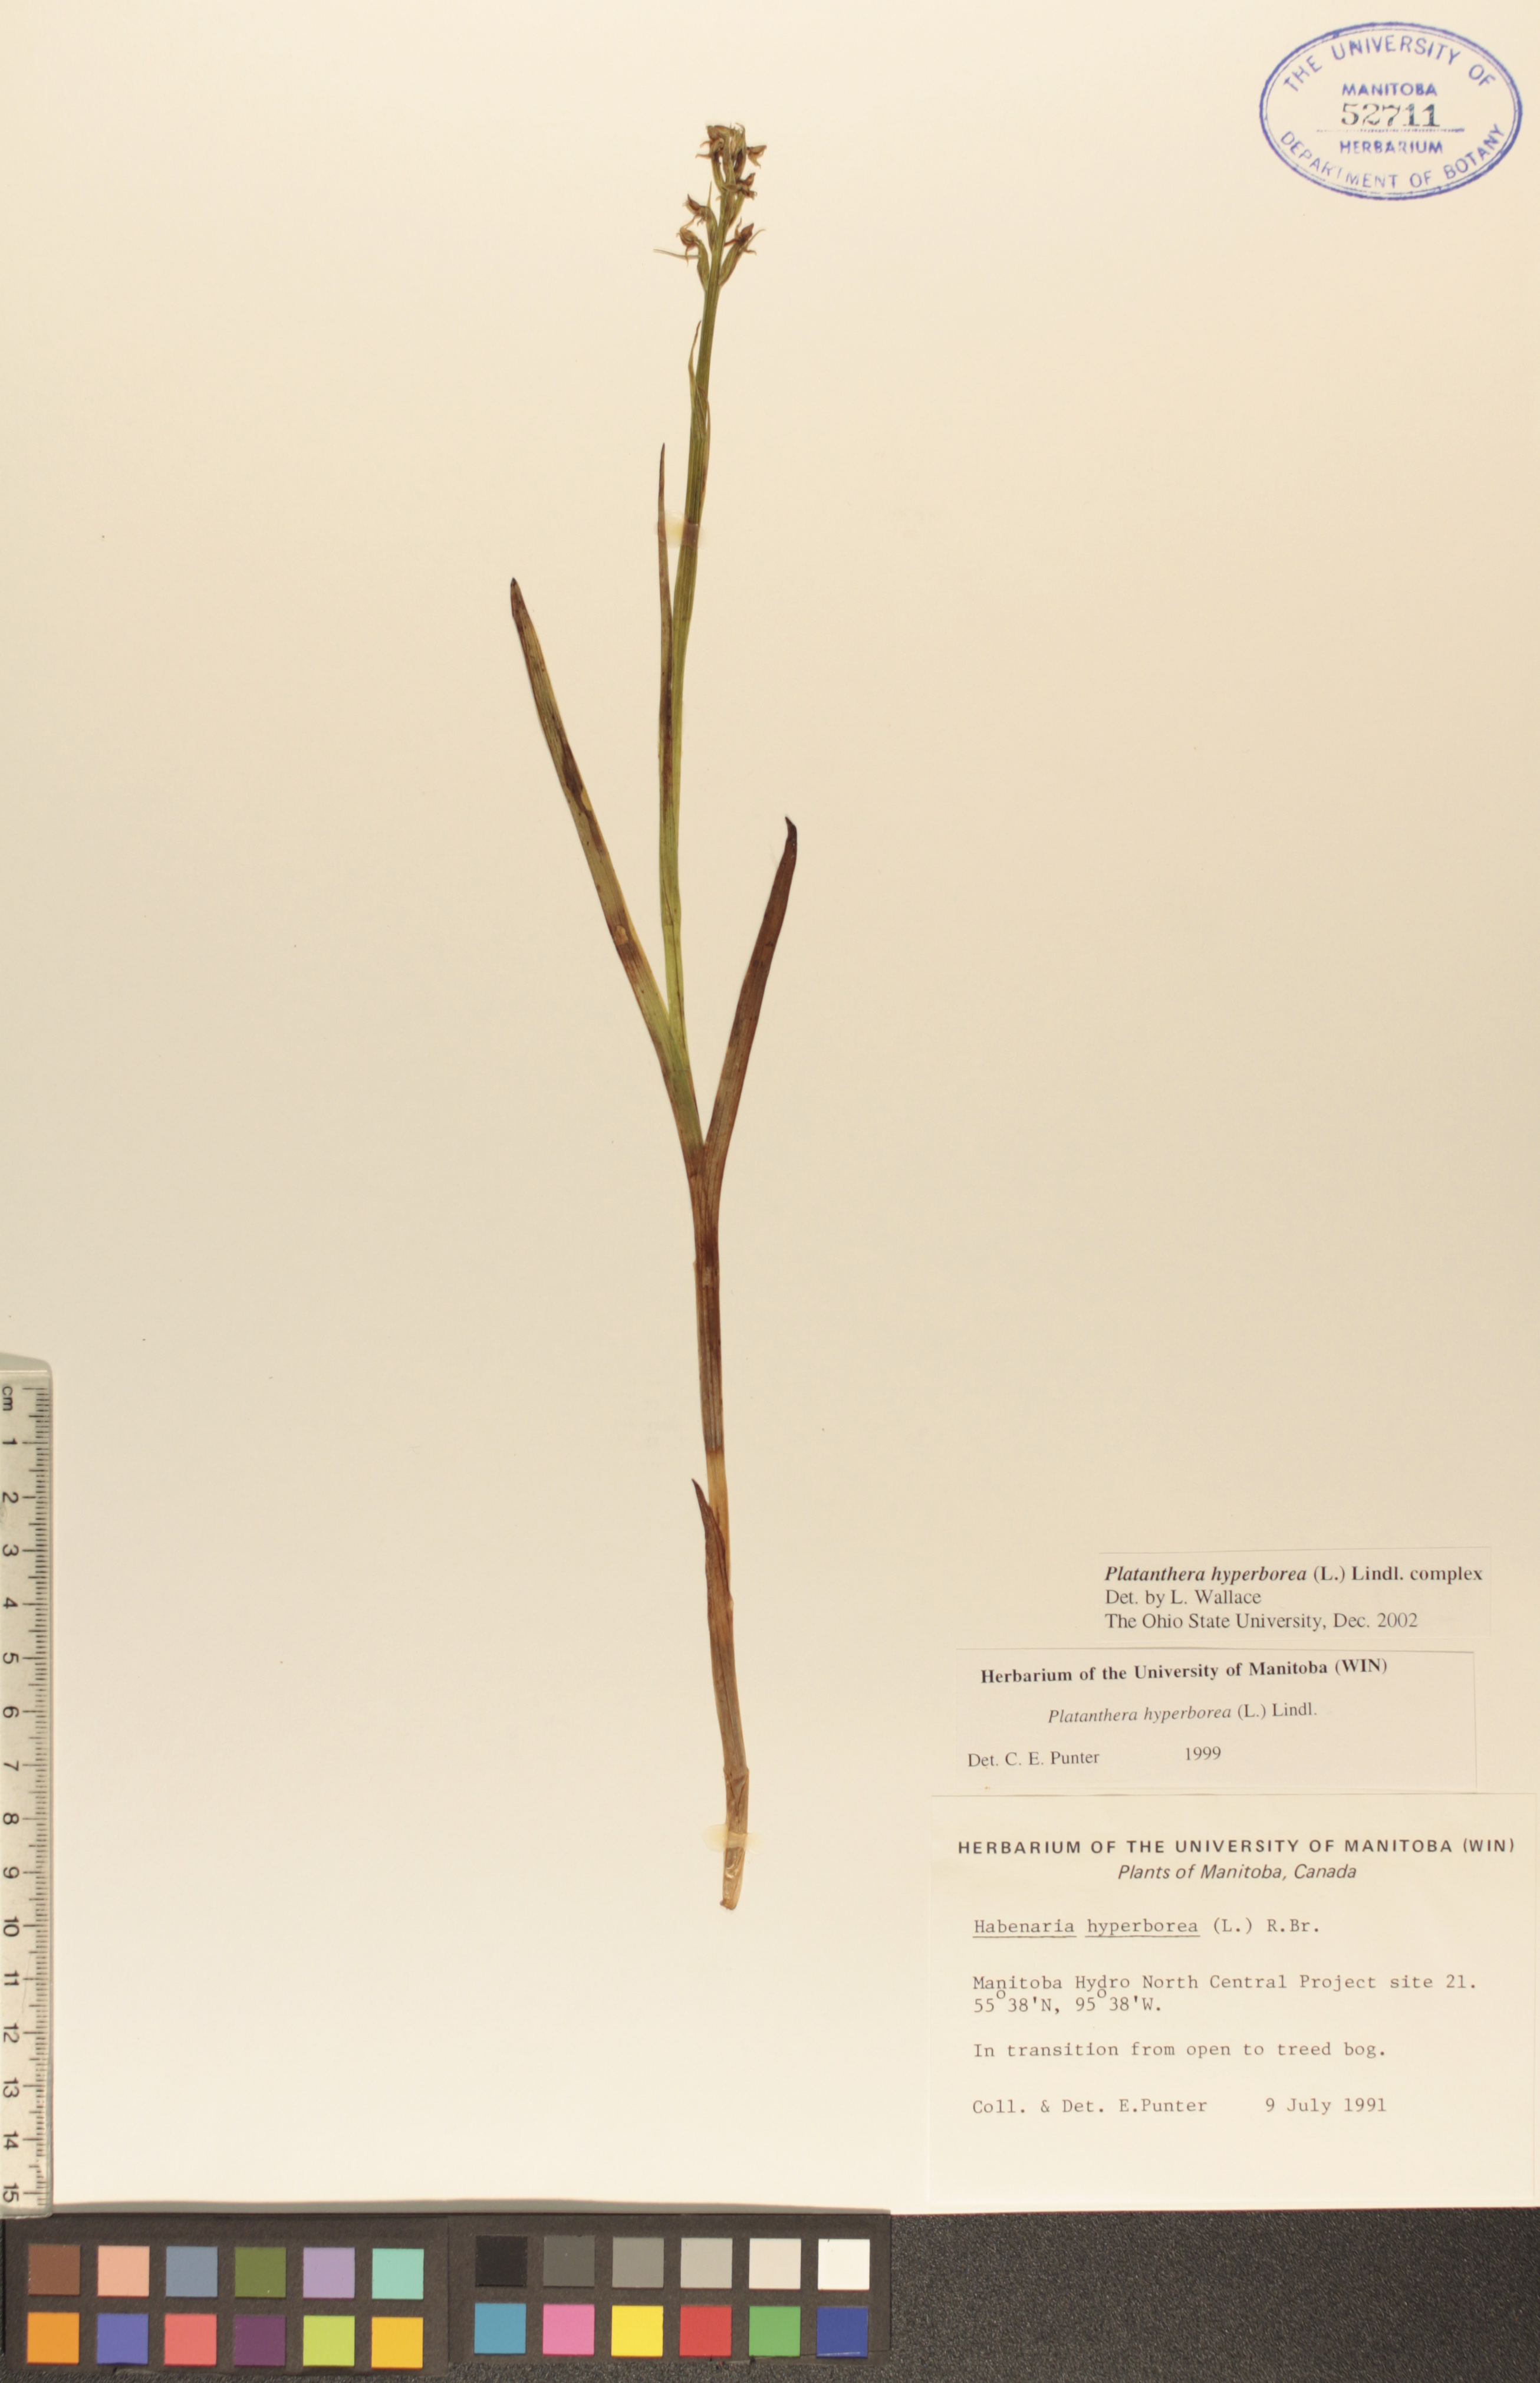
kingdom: Plantae
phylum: Tracheophyta
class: Liliopsida
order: Asparagales
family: Orchidaceae
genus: Platanthera
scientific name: Platanthera hyperborea
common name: Northern green orchid
